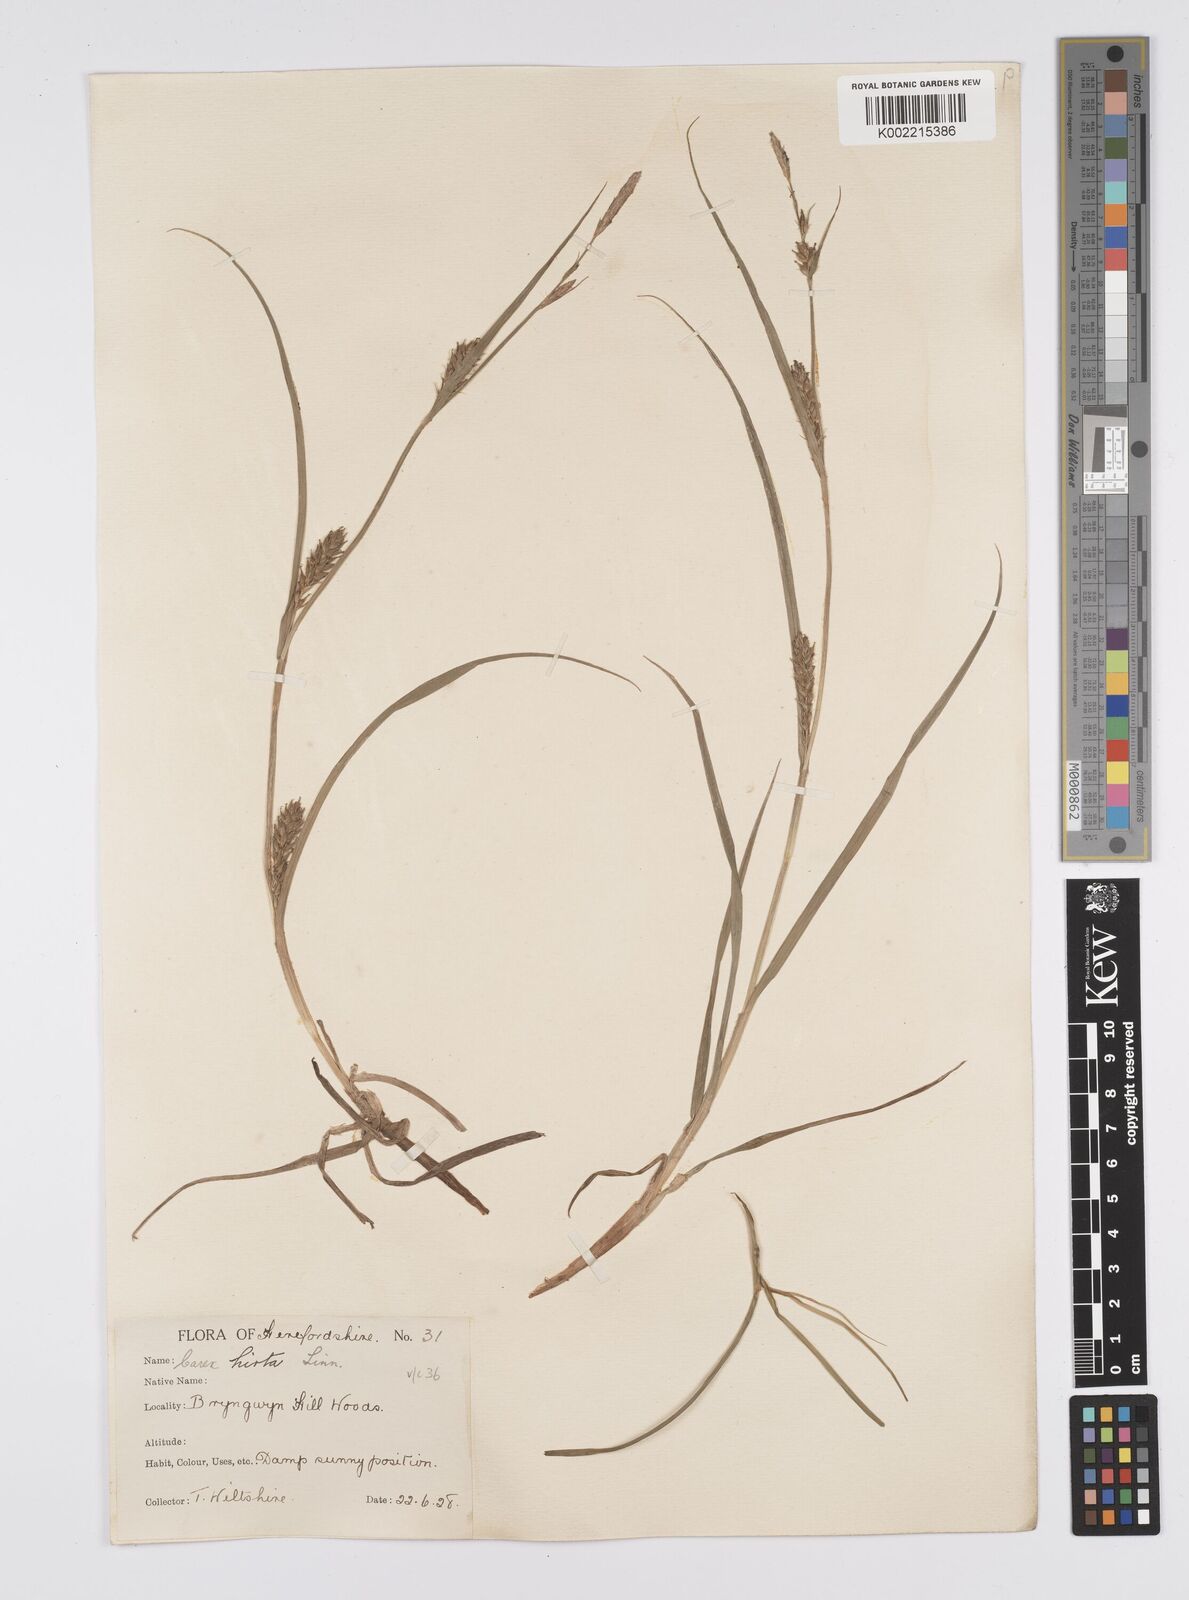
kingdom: Plantae
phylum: Tracheophyta
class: Liliopsida
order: Poales
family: Cyperaceae
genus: Carex
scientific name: Carex hirta
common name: Hairy sedge
